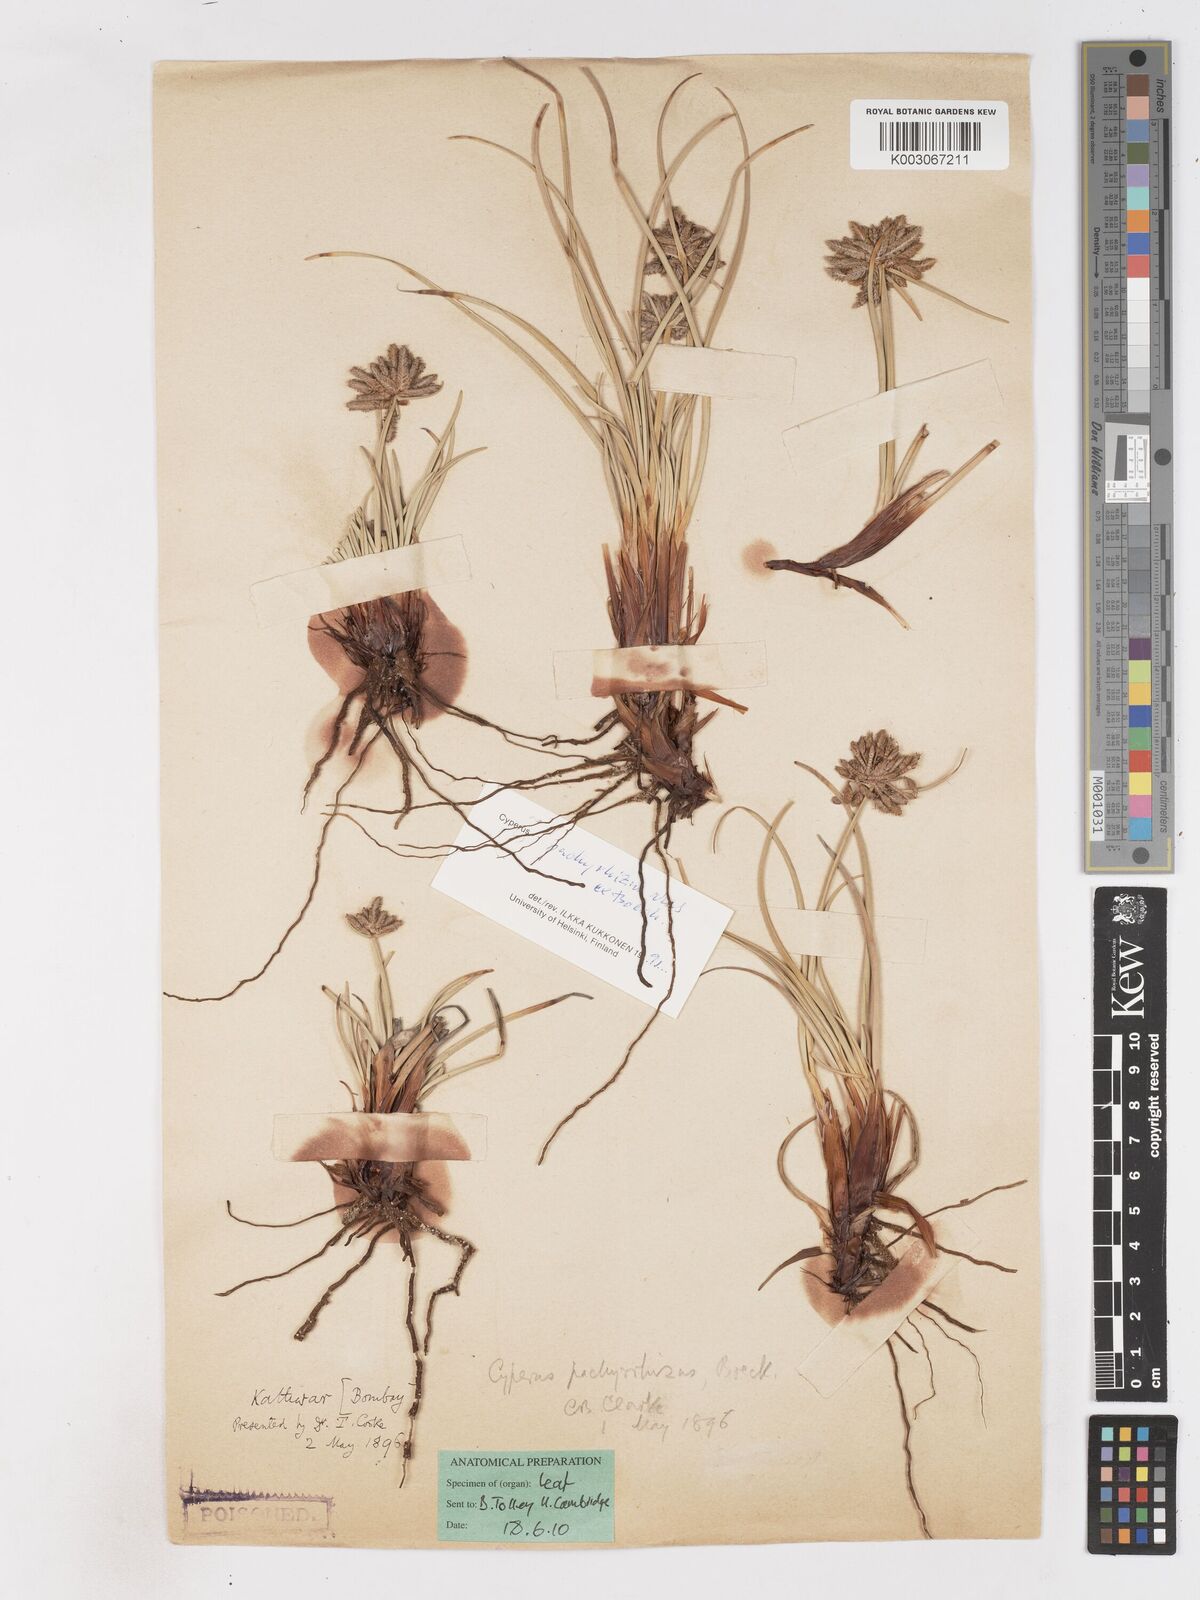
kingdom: Plantae
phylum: Tracheophyta
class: Liliopsida
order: Poales
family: Cyperaceae
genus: Cyperus
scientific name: Cyperus conglomeratus
